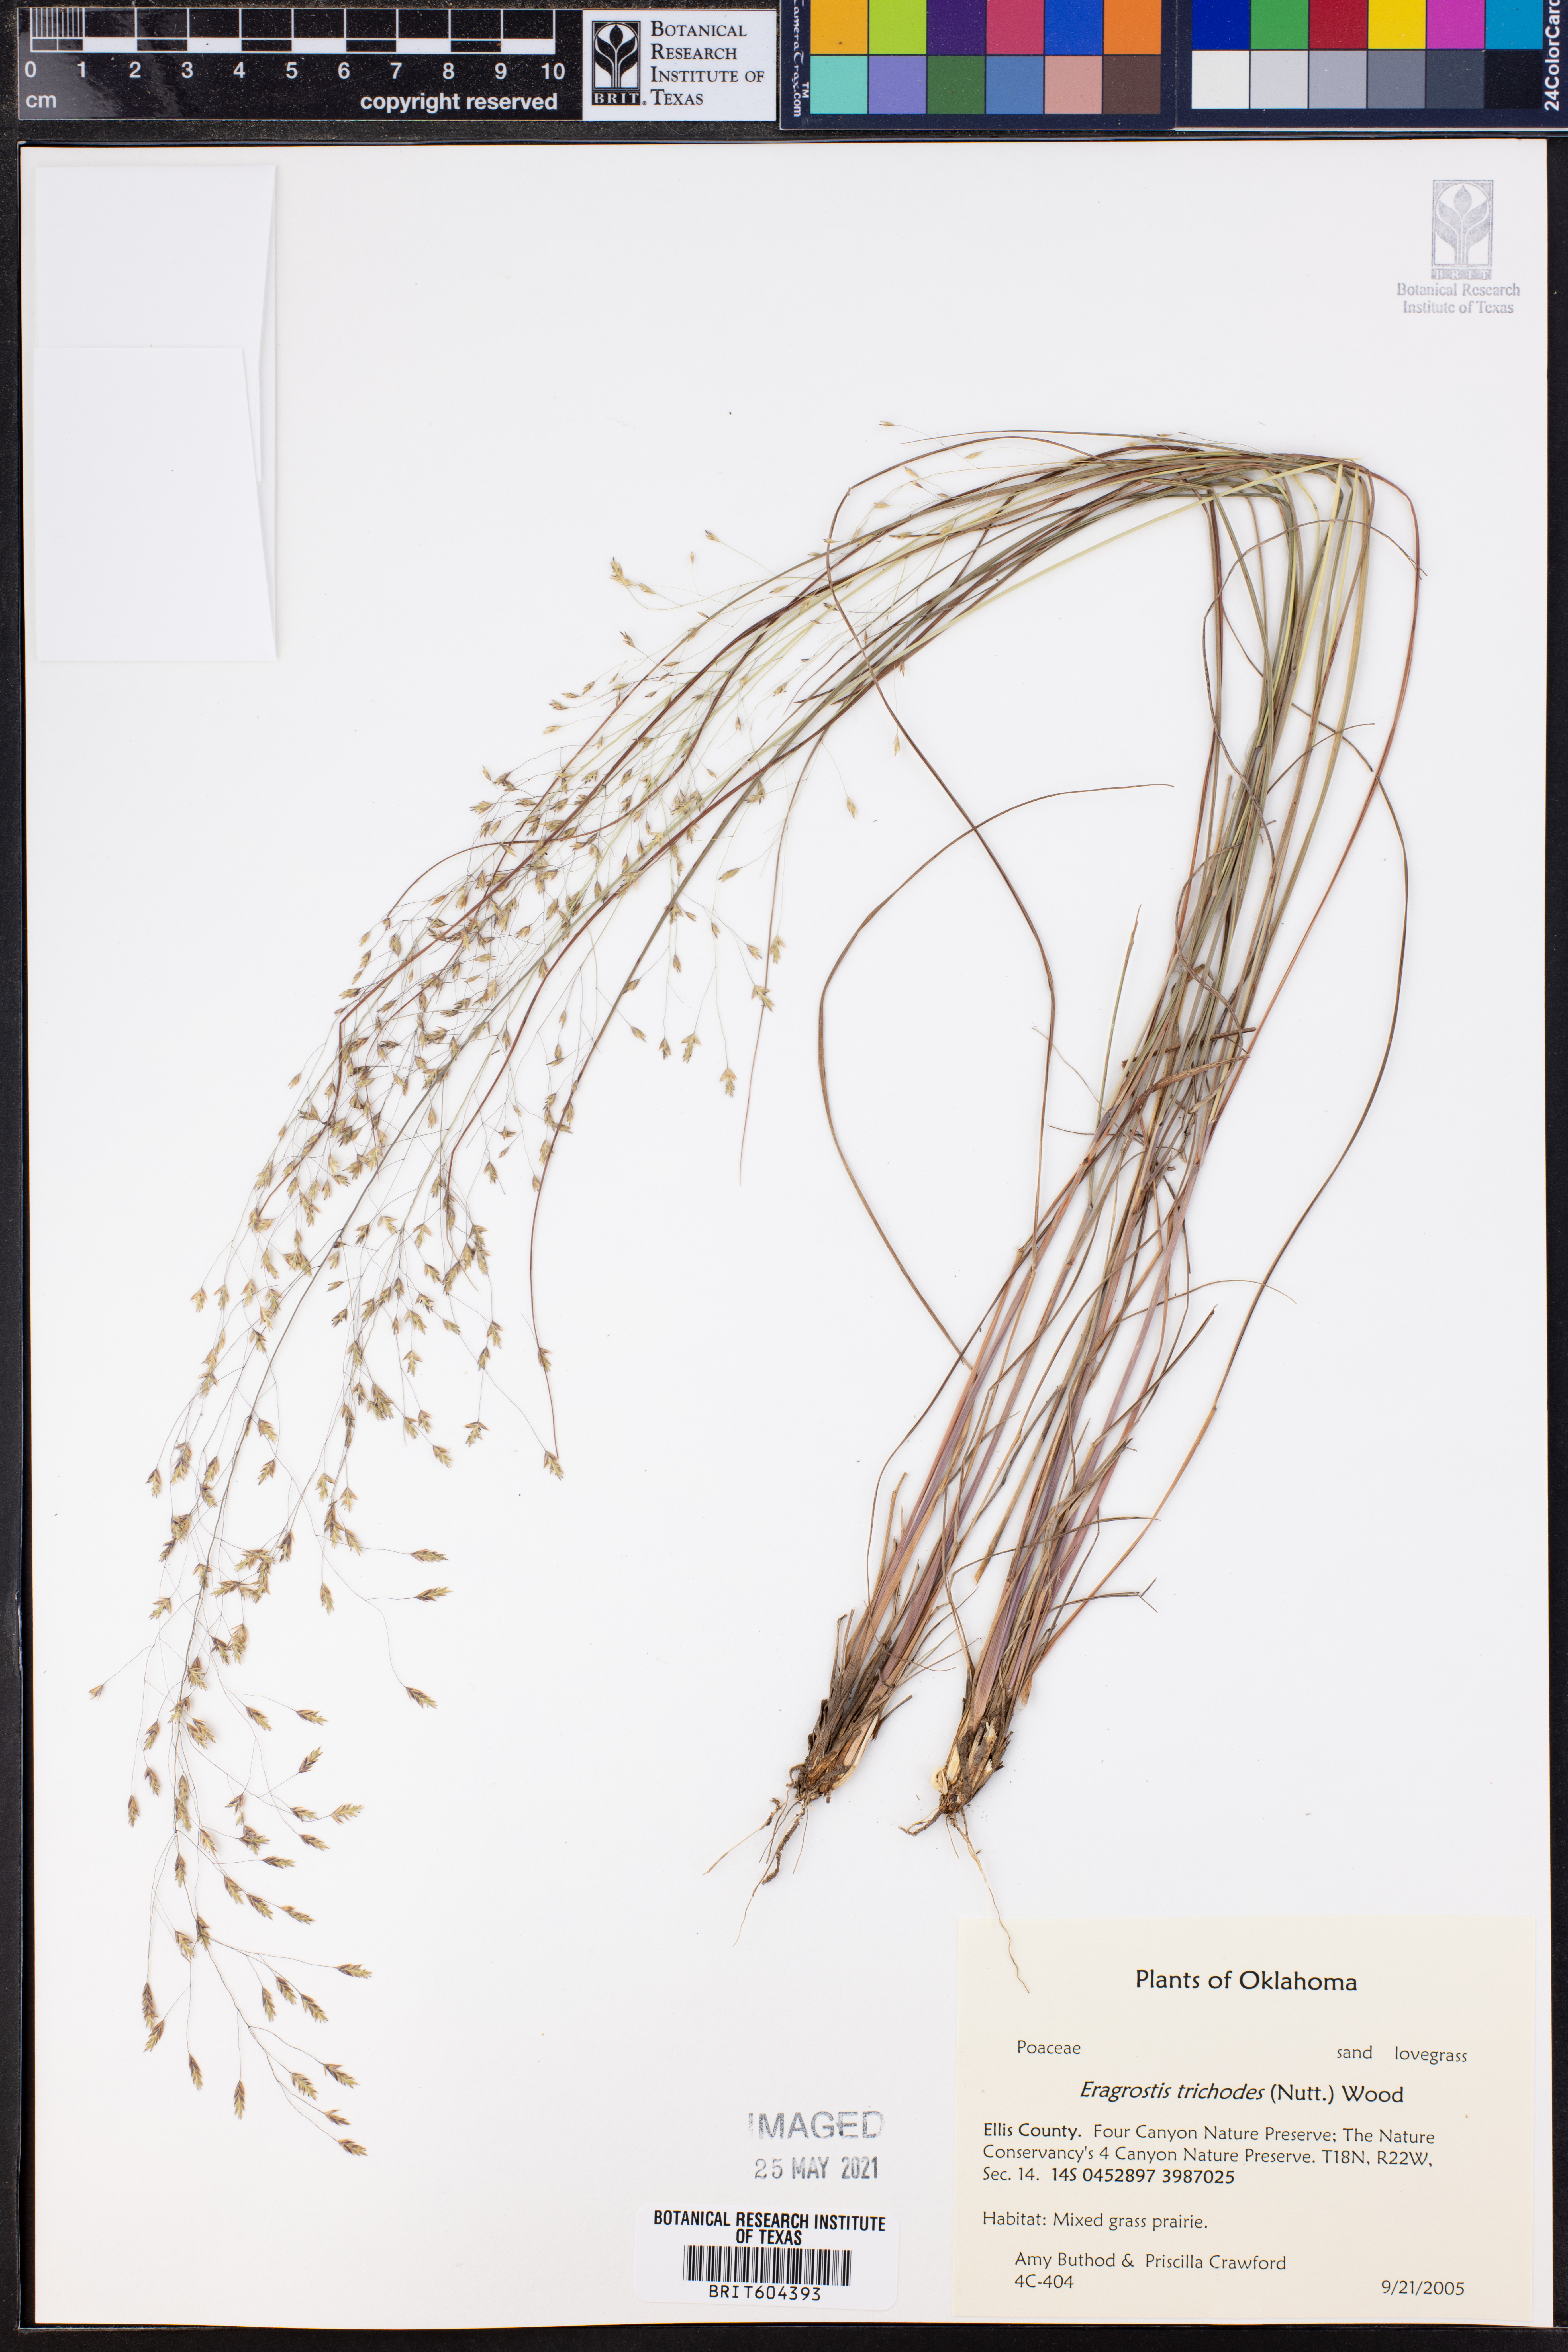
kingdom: Plantae
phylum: Tracheophyta
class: Liliopsida
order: Poales
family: Poaceae
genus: Eragrostis
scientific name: Eragrostis trichodes
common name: Sand love grass
